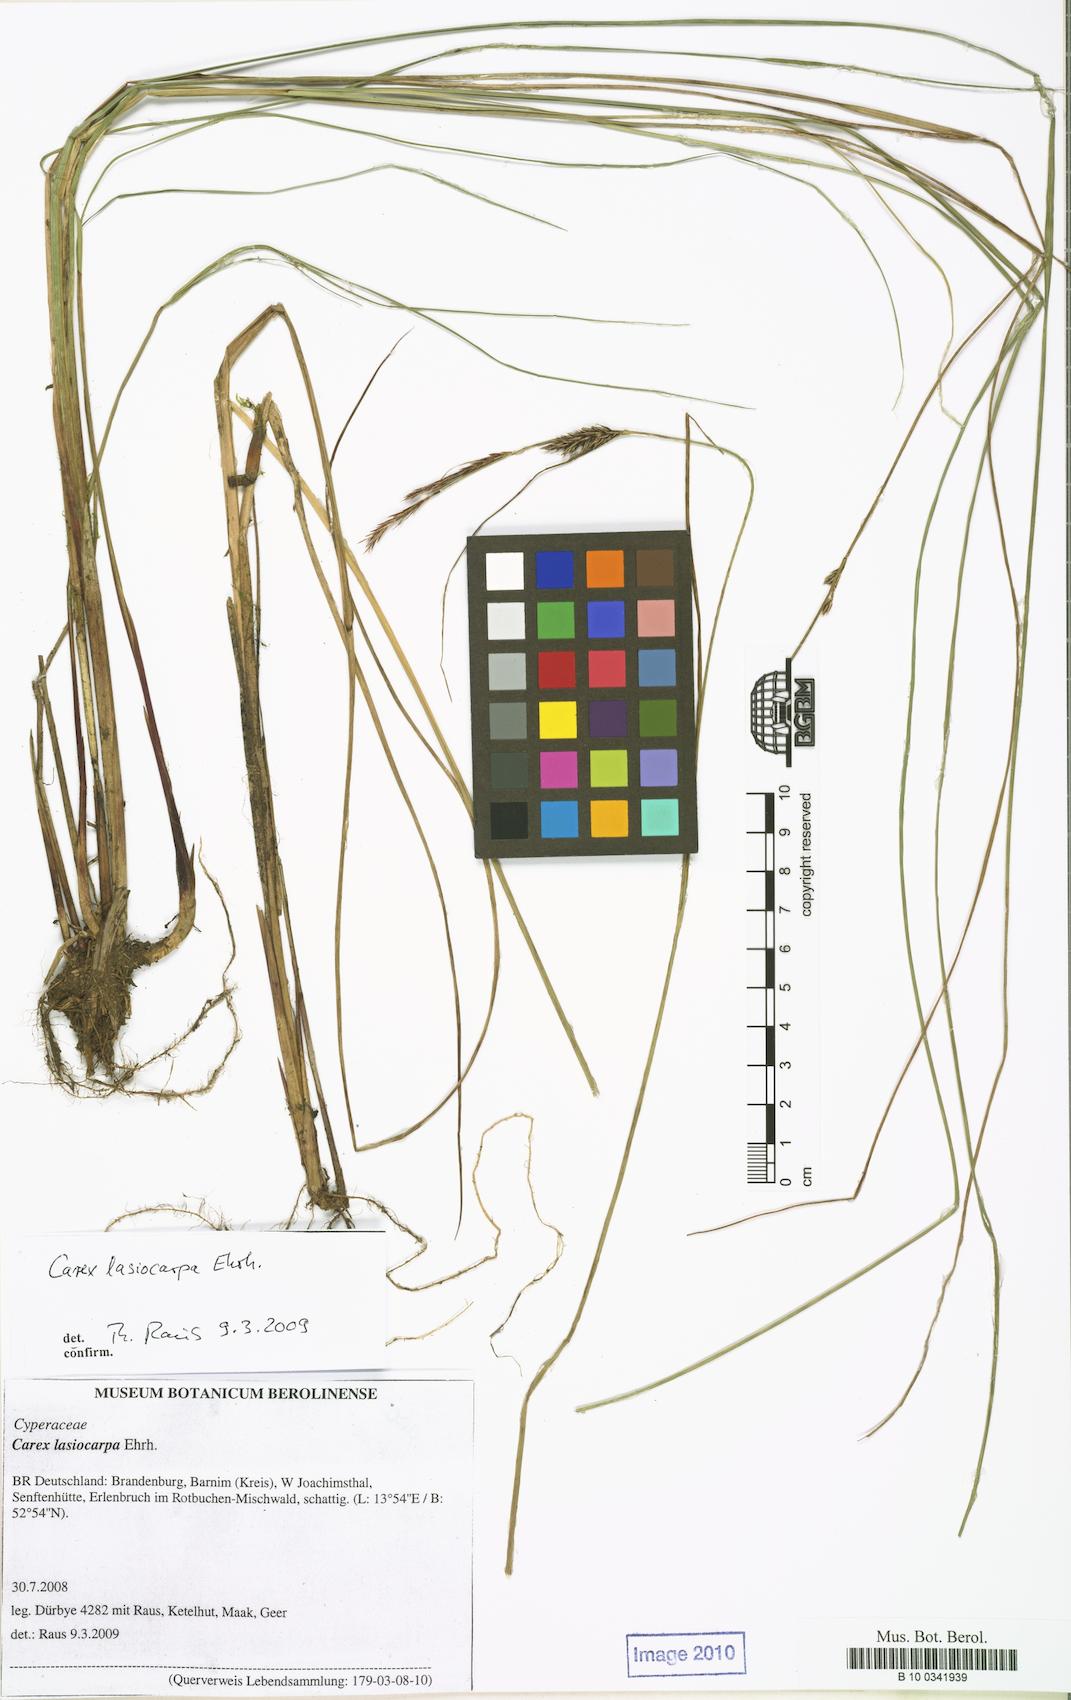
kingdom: Plantae
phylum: Tracheophyta
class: Liliopsida
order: Poales
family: Cyperaceae
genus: Carex
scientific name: Carex lasiocarpa
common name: Slender sedge
